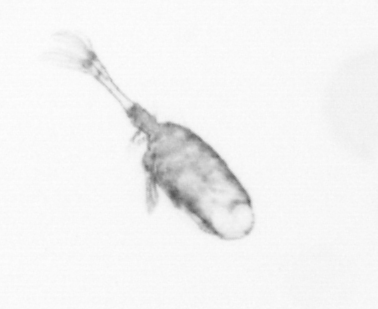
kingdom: Animalia
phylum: Arthropoda
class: Copepoda
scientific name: Copepoda
